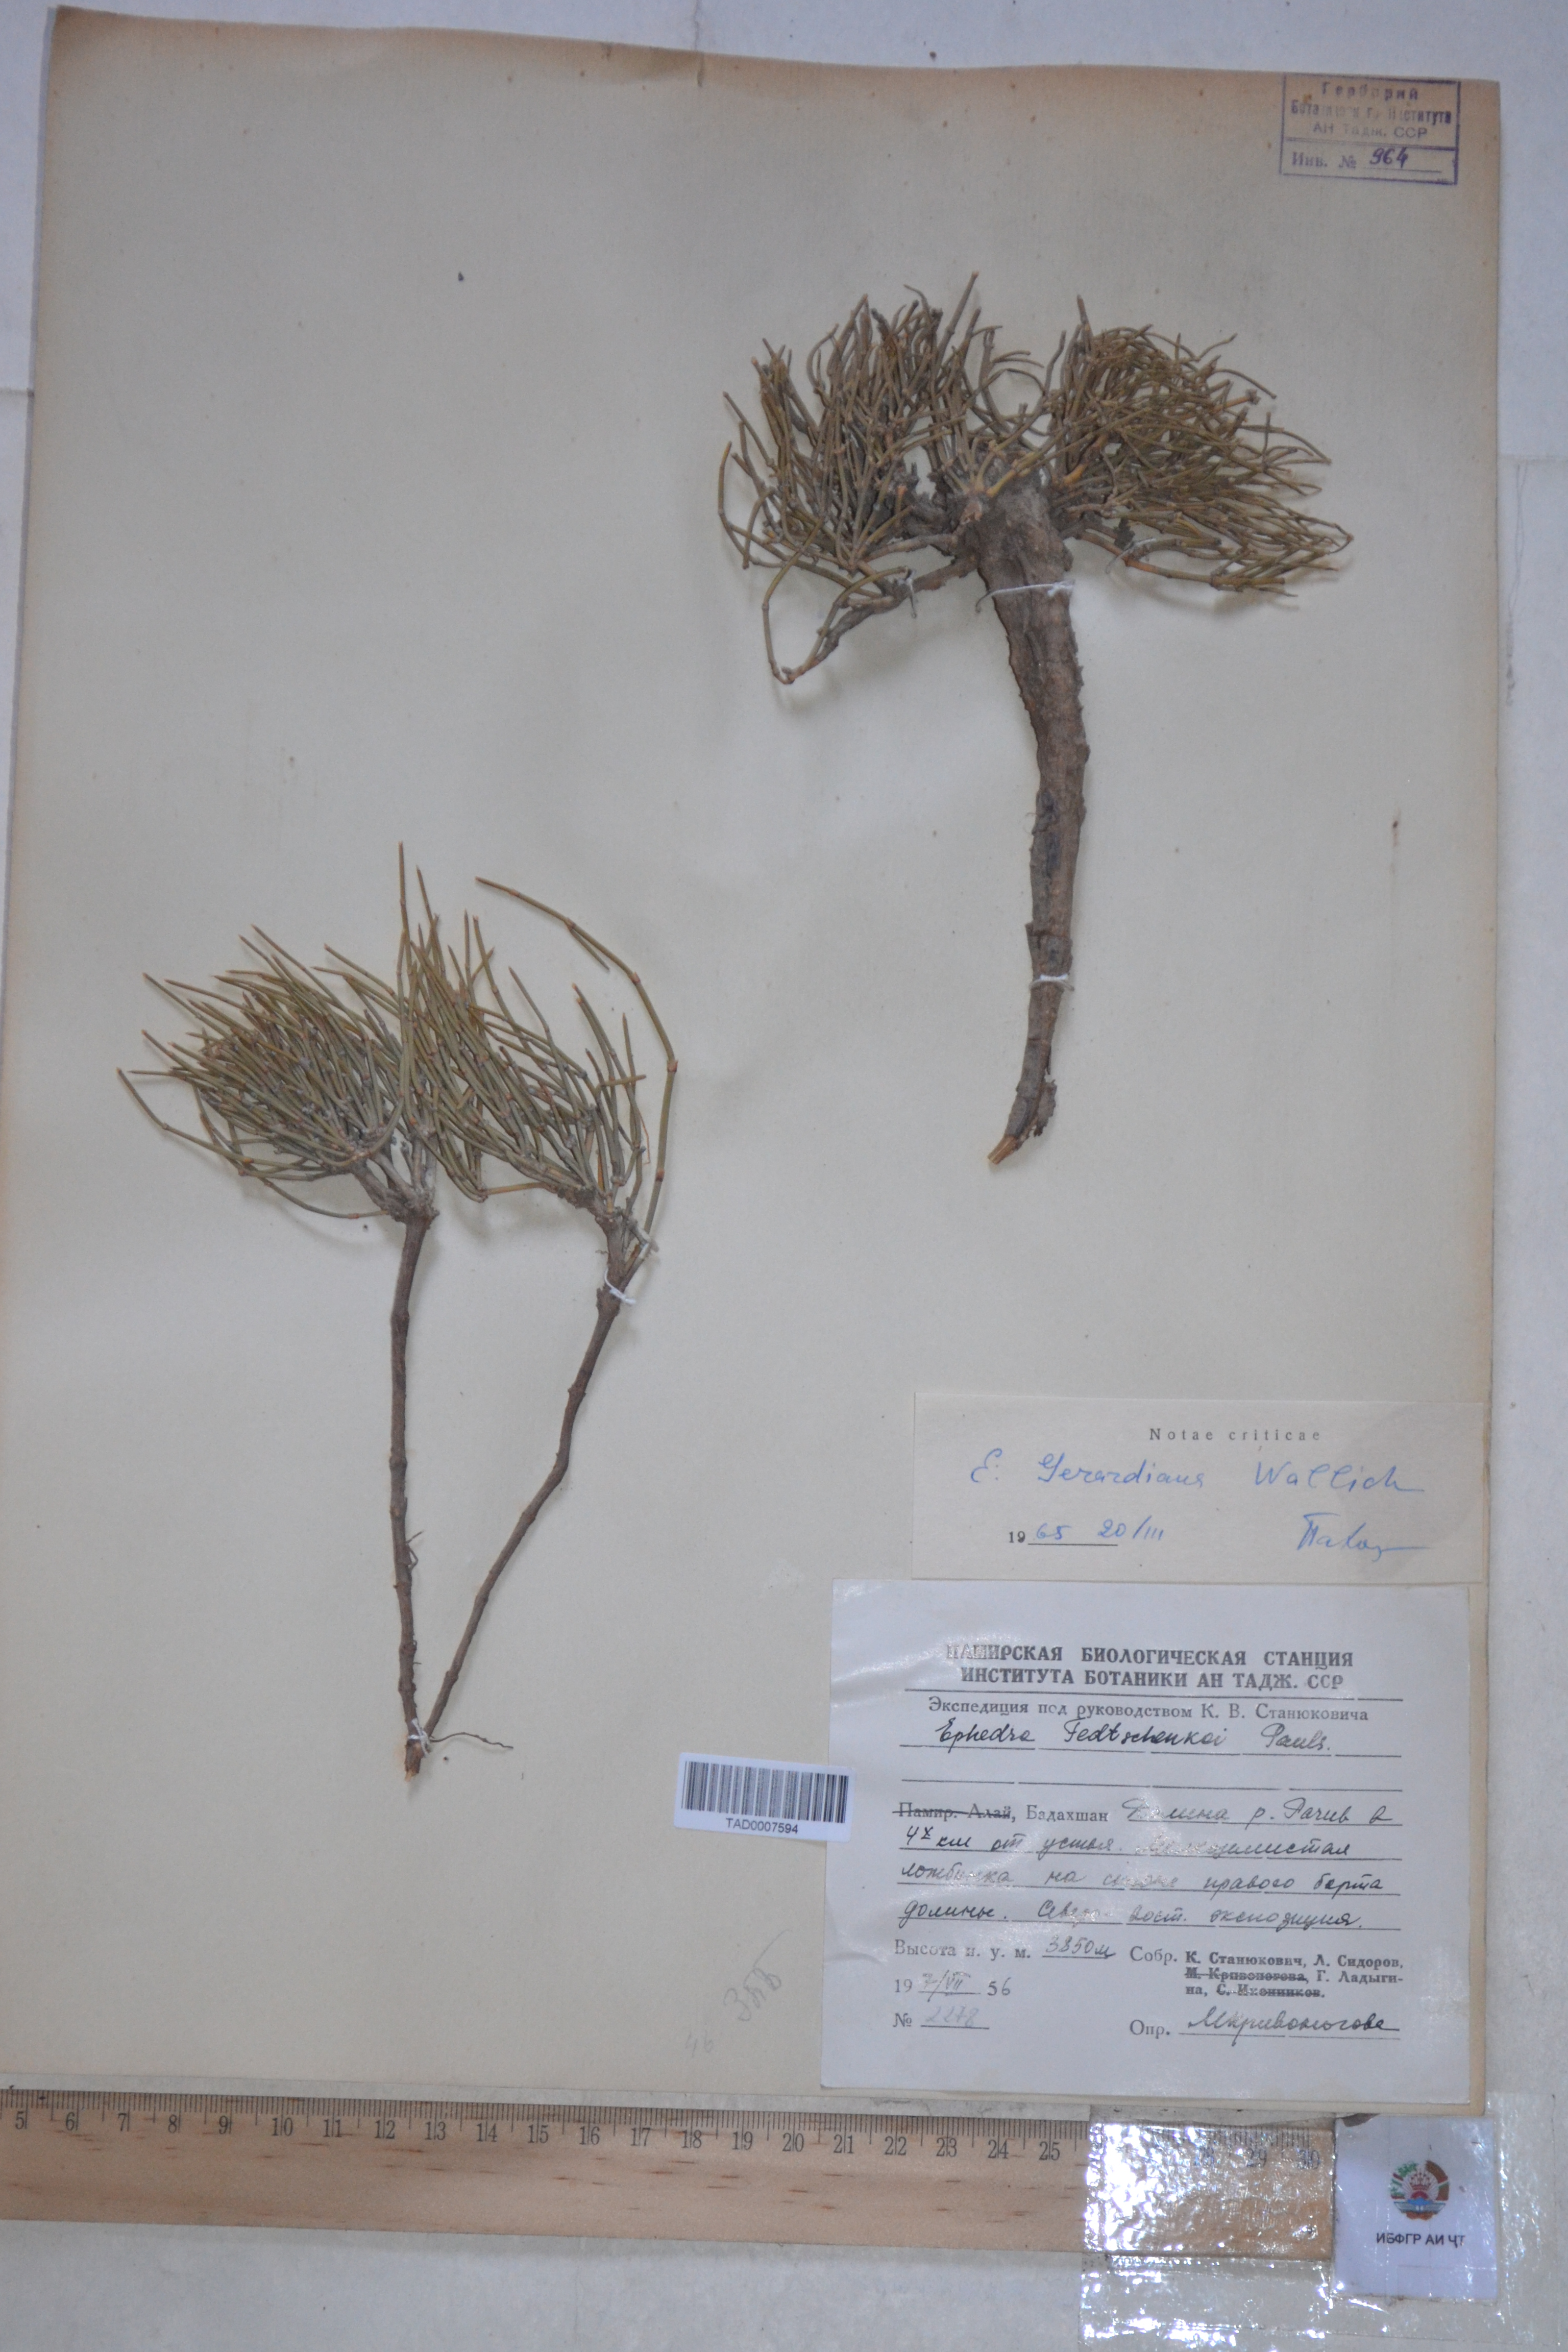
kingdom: Plantae
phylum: Tracheophyta
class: Gnetopsida
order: Ephedrales
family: Ephedraceae
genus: Ephedra
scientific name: Ephedra gerardiana
